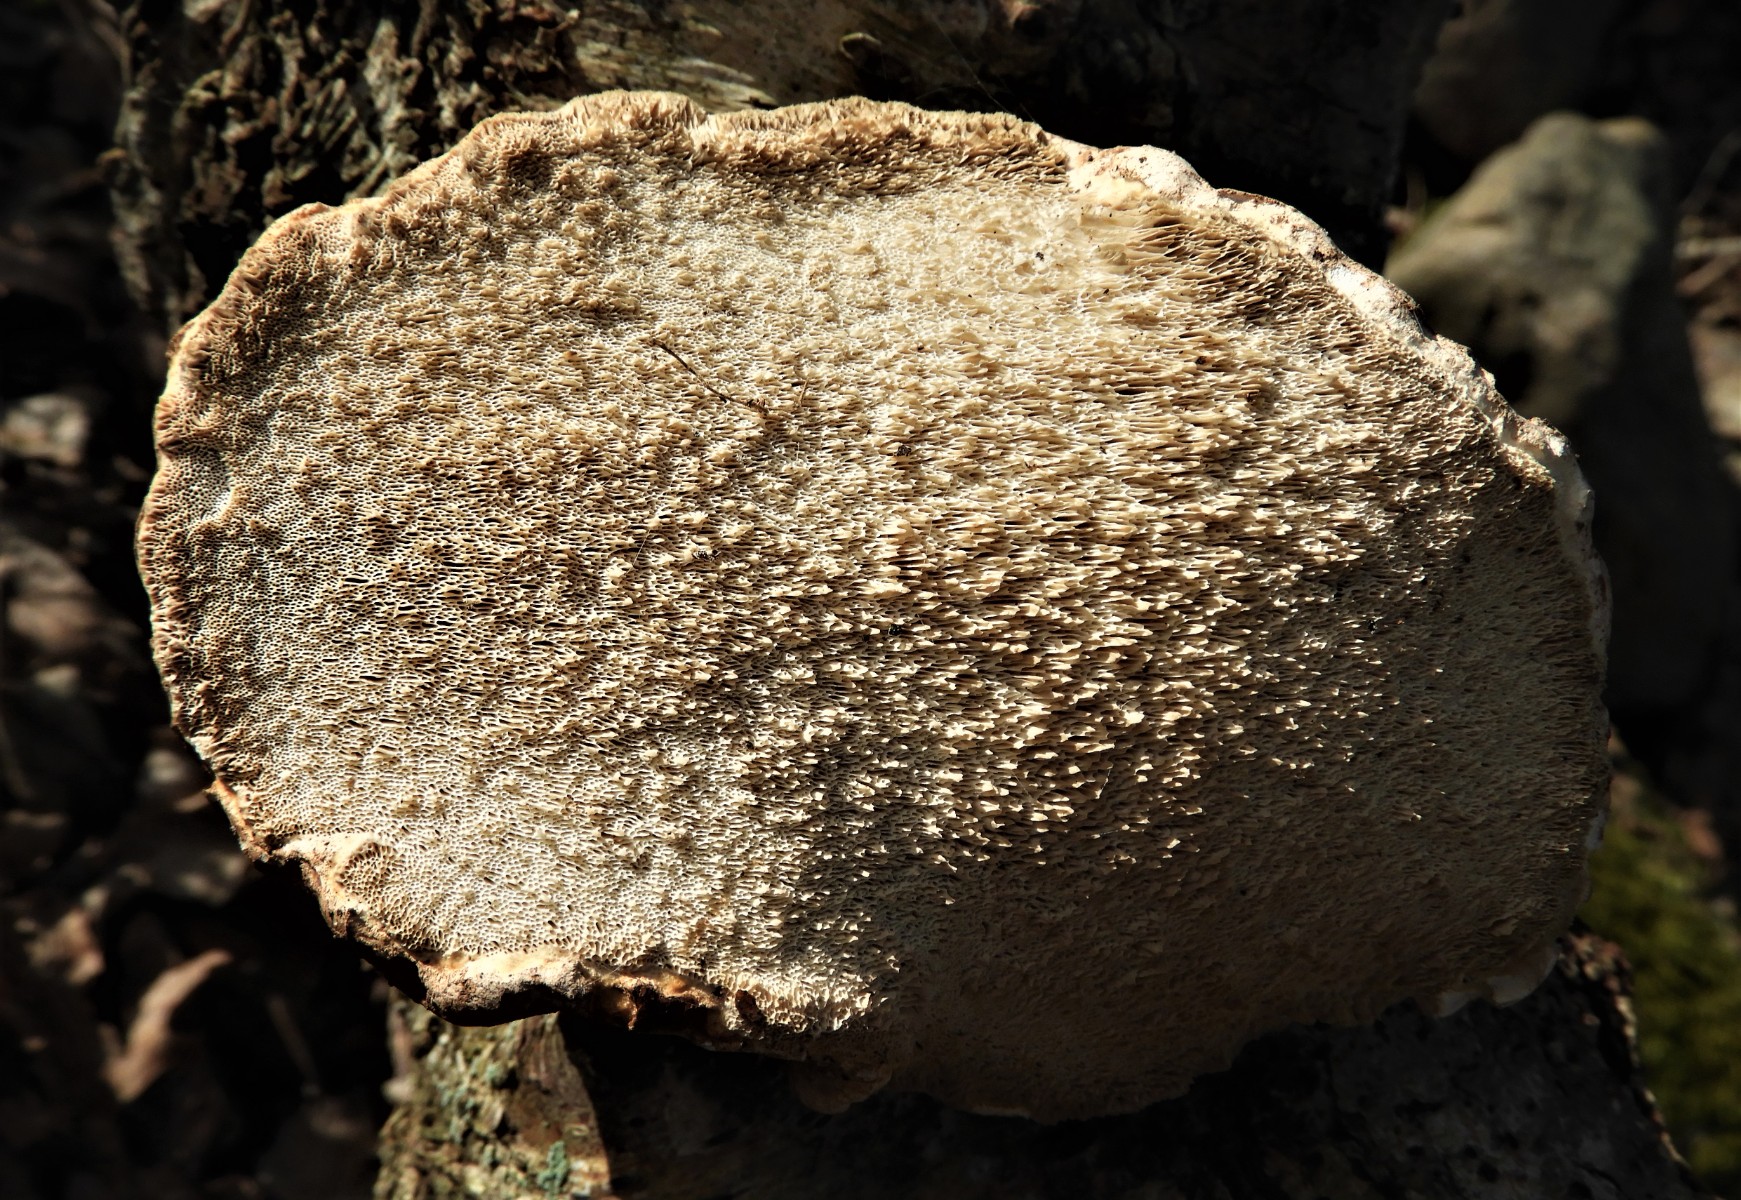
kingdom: Fungi
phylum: Basidiomycota
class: Agaricomycetes
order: Polyporales
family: Fomitopsidaceae
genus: Fomitopsis
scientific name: Fomitopsis betulina
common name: birkeporesvamp
